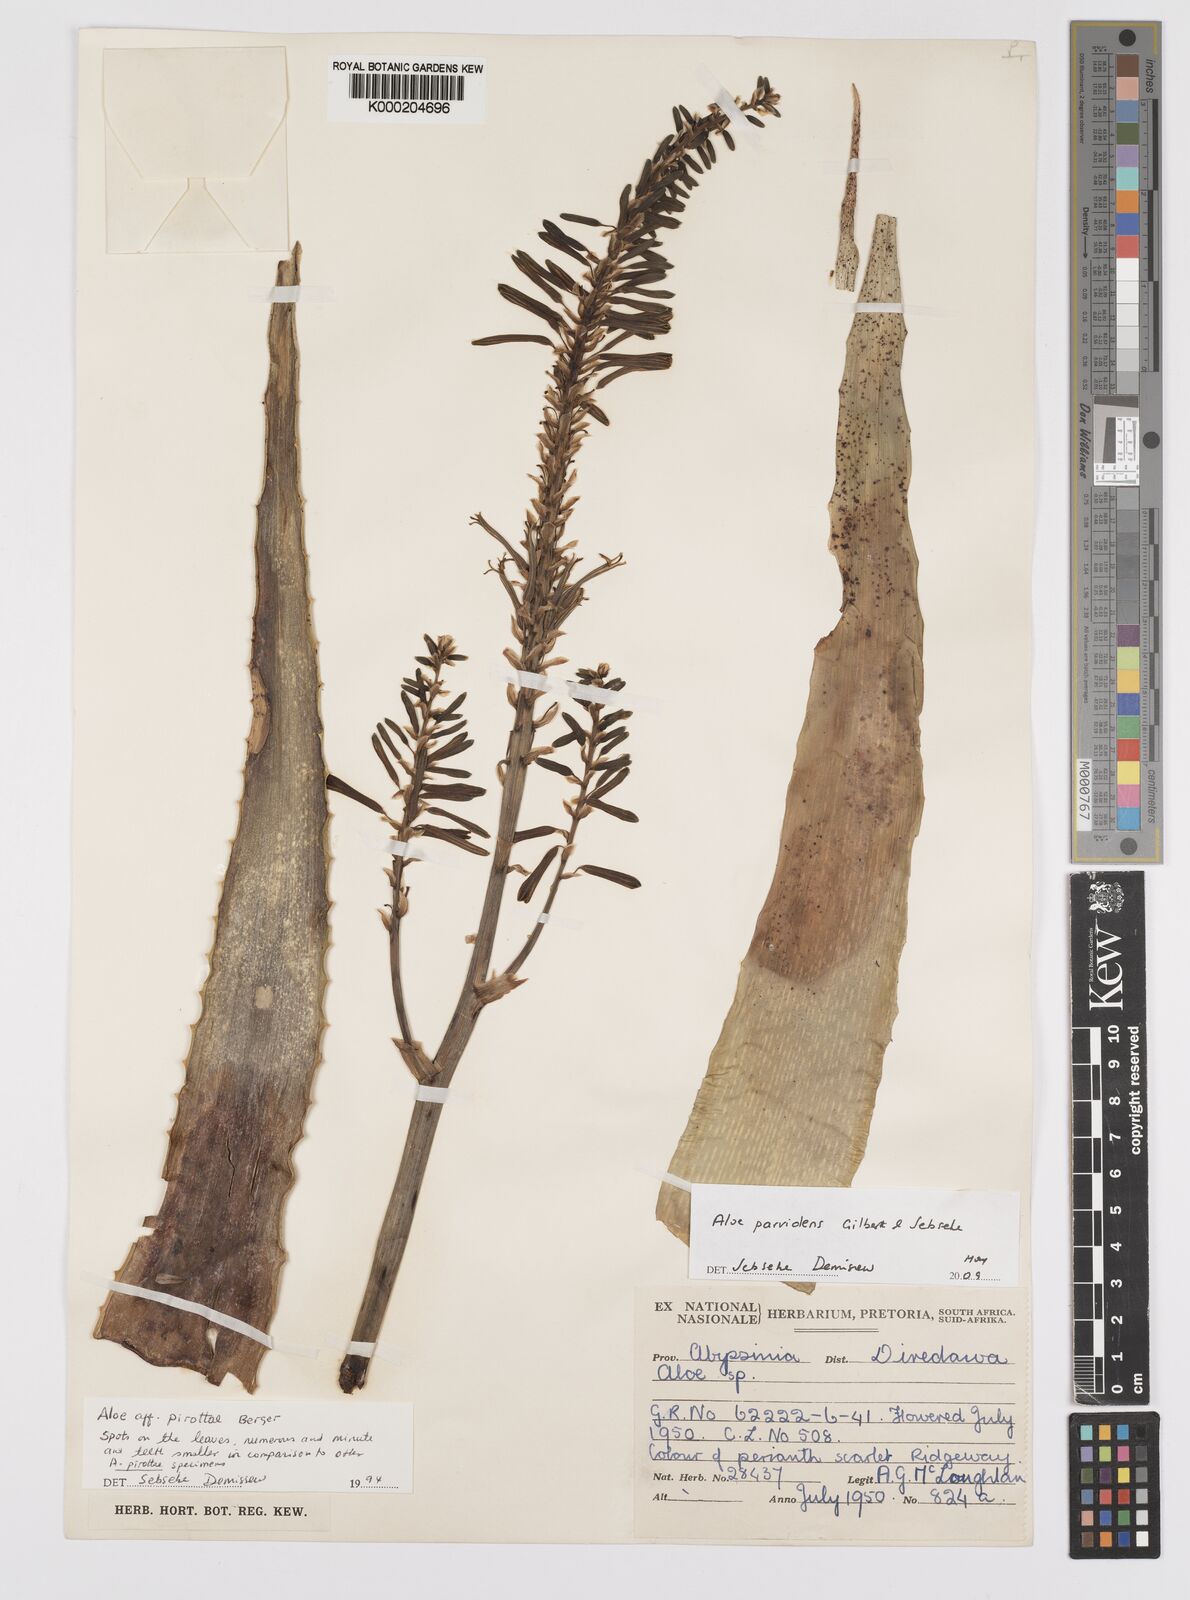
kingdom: Plantae
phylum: Tracheophyta
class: Liliopsida
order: Asparagales
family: Asphodelaceae
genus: Aloe
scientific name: Aloe mcloughlinii
